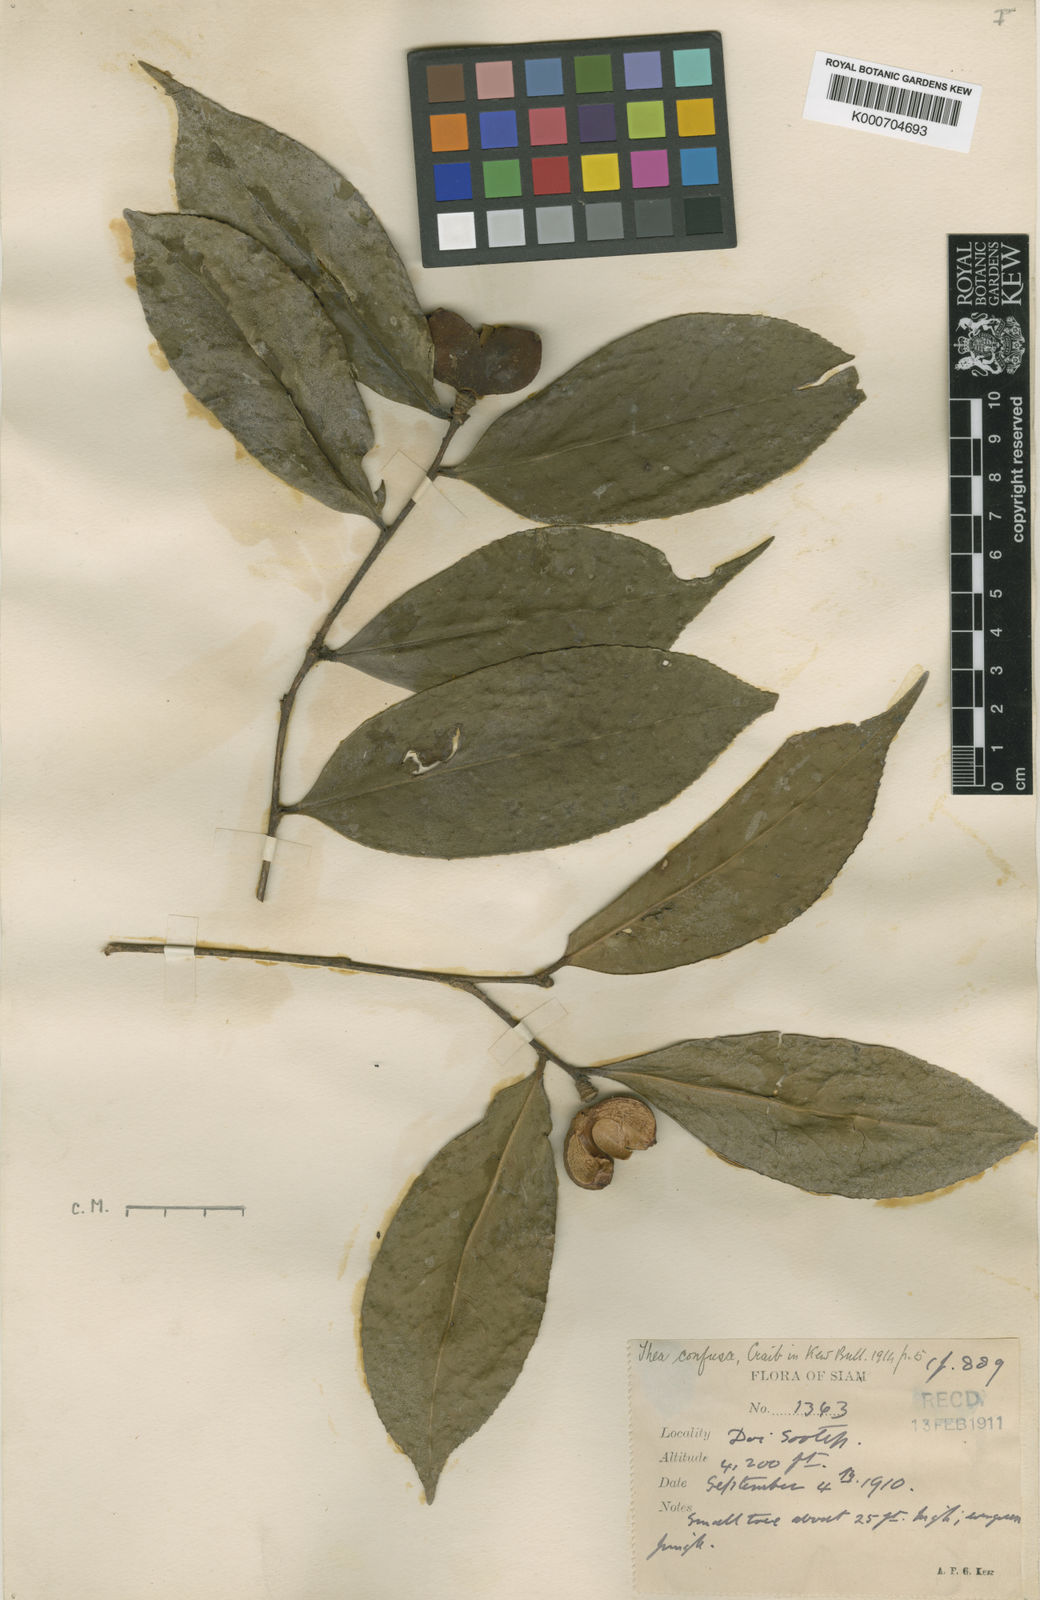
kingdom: Plantae
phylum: Tracheophyta
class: Magnoliopsida
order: Ericales
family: Theaceae
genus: Camellia
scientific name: Camellia oleifera
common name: Tea-oil-plant
